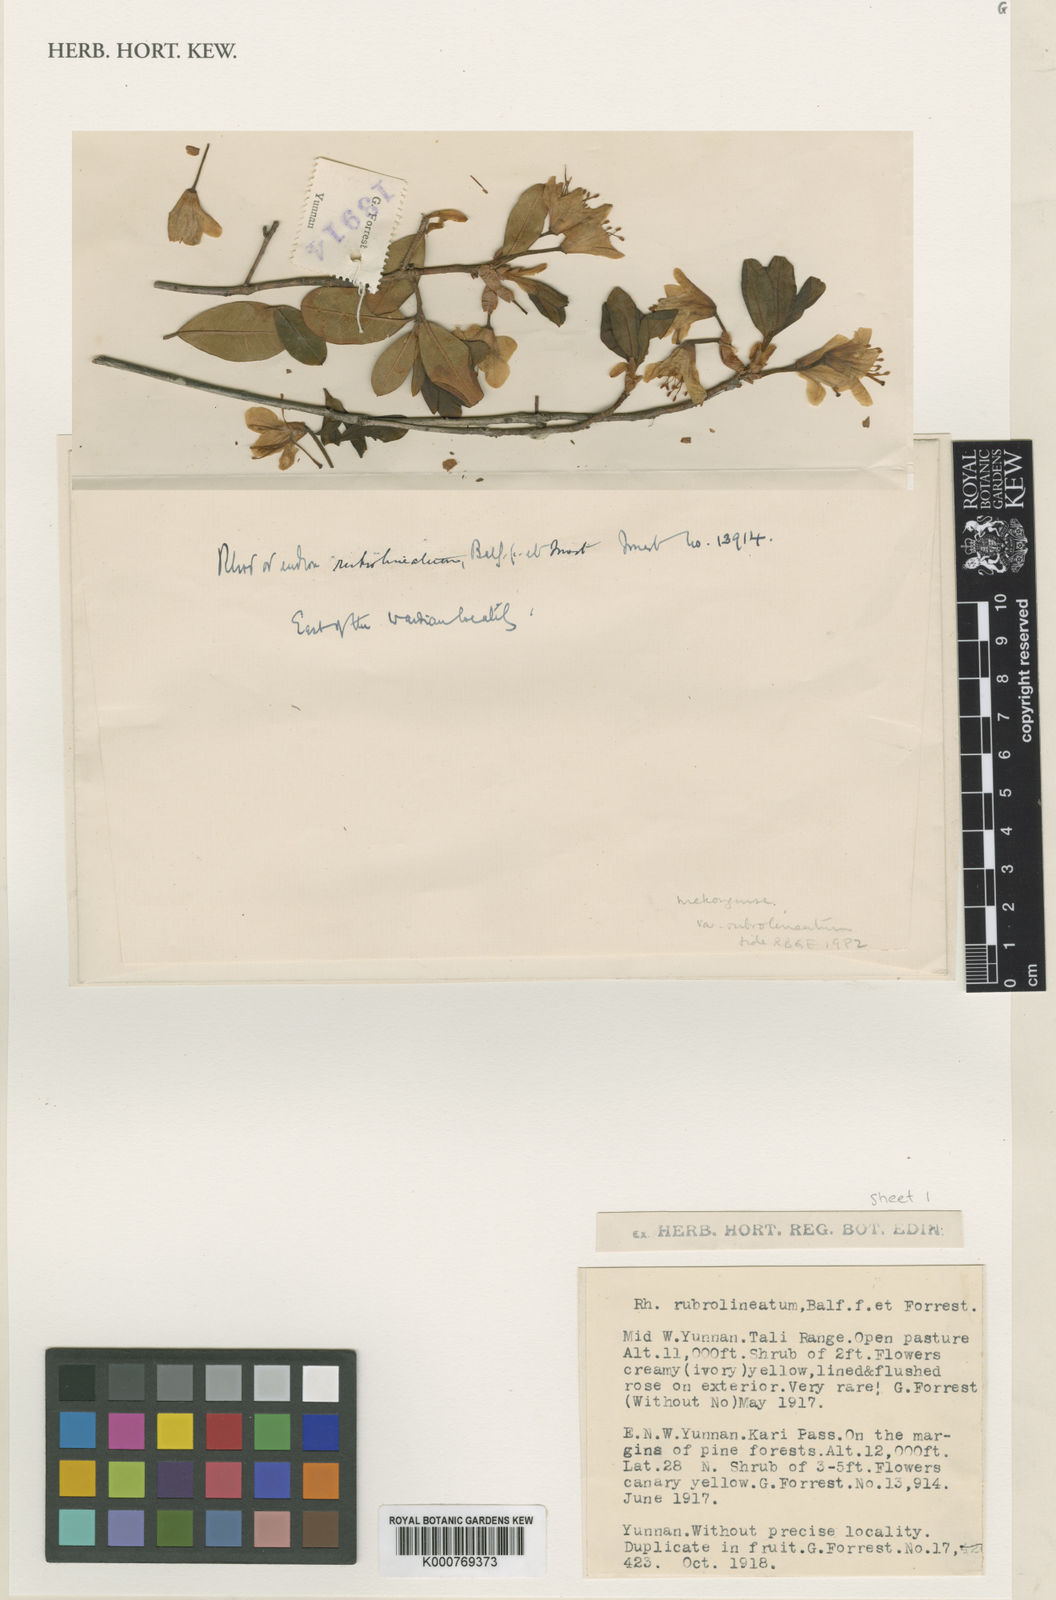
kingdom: Plantae
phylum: Tracheophyta
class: Magnoliopsida
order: Ericales
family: Ericaceae
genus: Rhododendron
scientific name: Rhododendron mekongense
